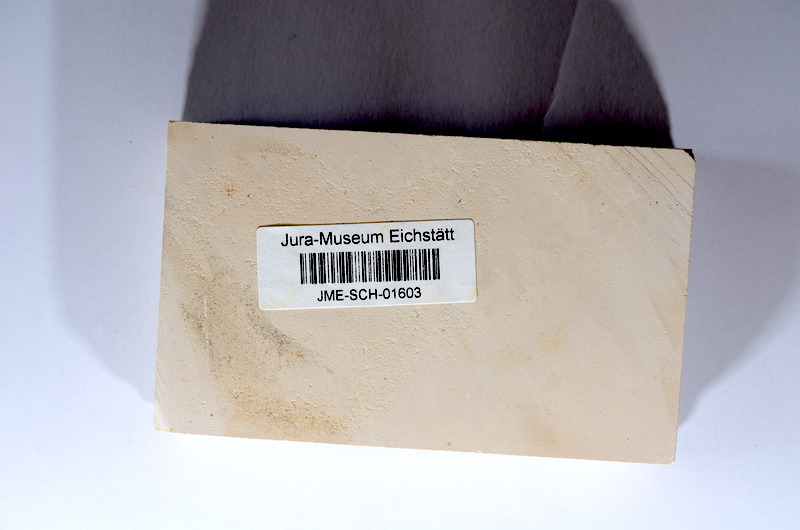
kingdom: Animalia
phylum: Chordata
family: Ascalaboidae
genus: Tharsis
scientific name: Tharsis dubius
